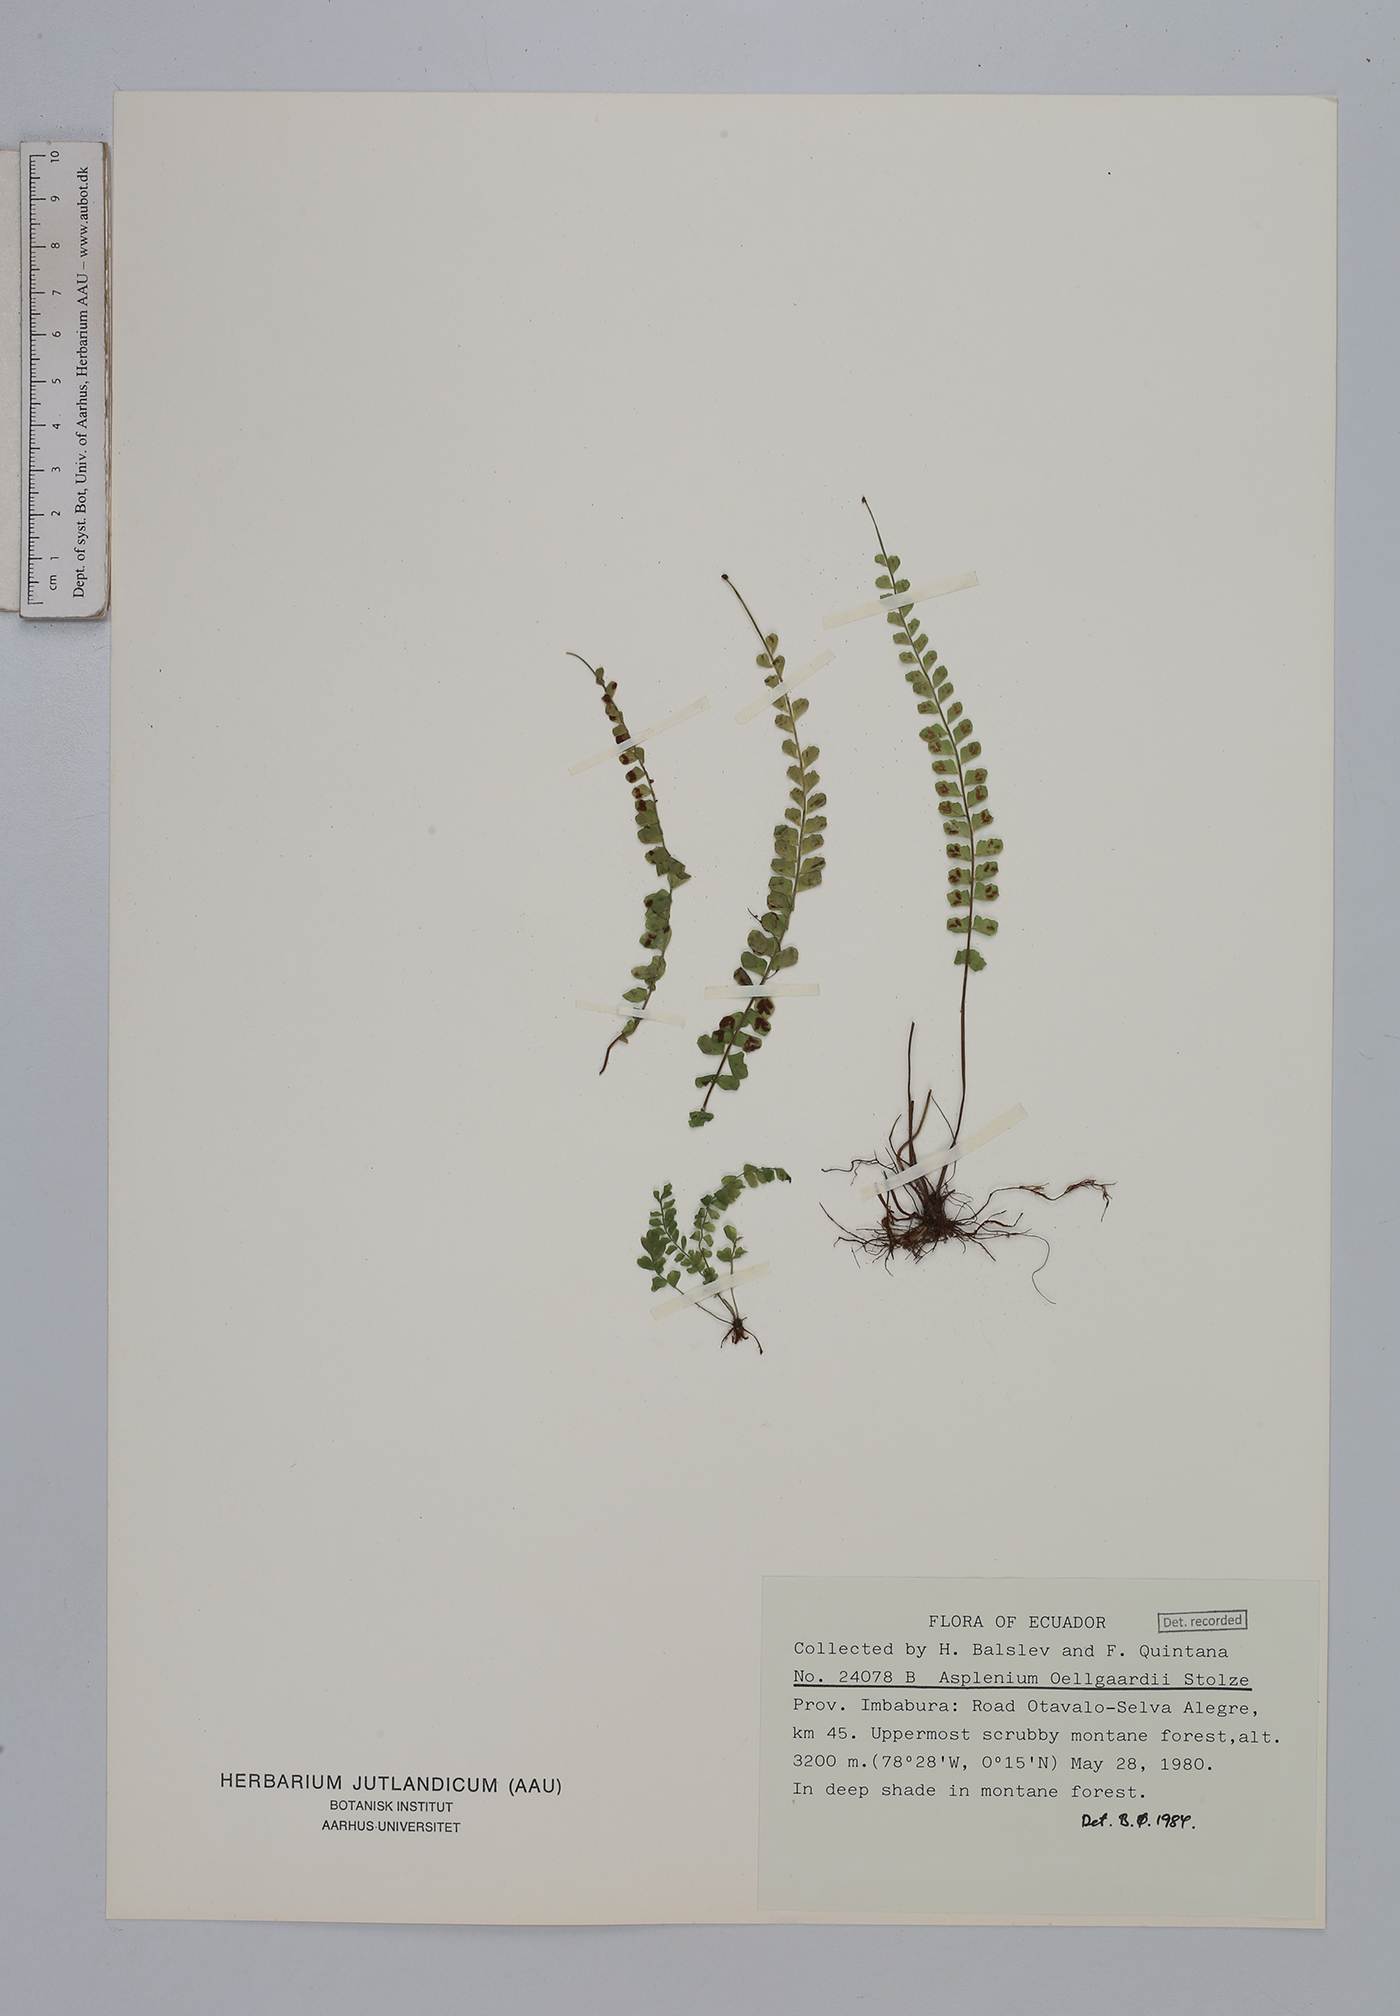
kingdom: Plantae
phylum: Tracheophyta
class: Polypodiopsida
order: Polypodiales
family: Aspleniaceae
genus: Asplenium
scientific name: Asplenium oellgaardii
